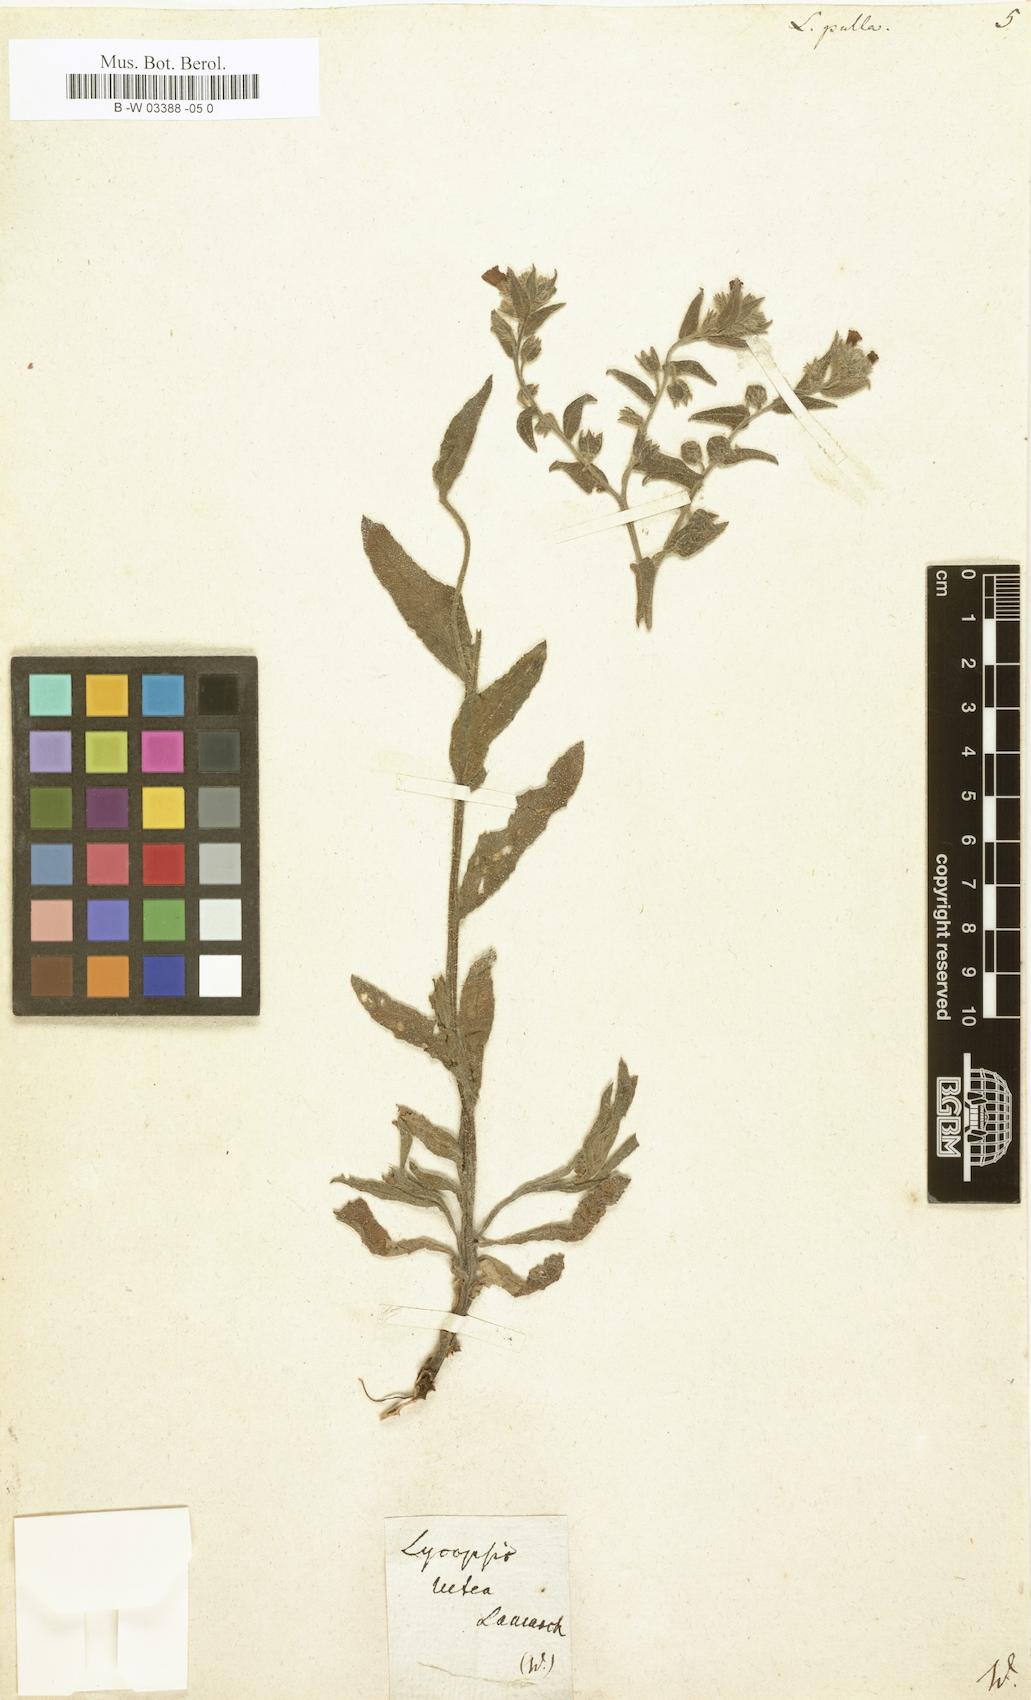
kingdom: Plantae
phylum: Tracheophyta
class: Magnoliopsida
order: Boraginales
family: Boraginaceae
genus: Nonea
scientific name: Nonea
